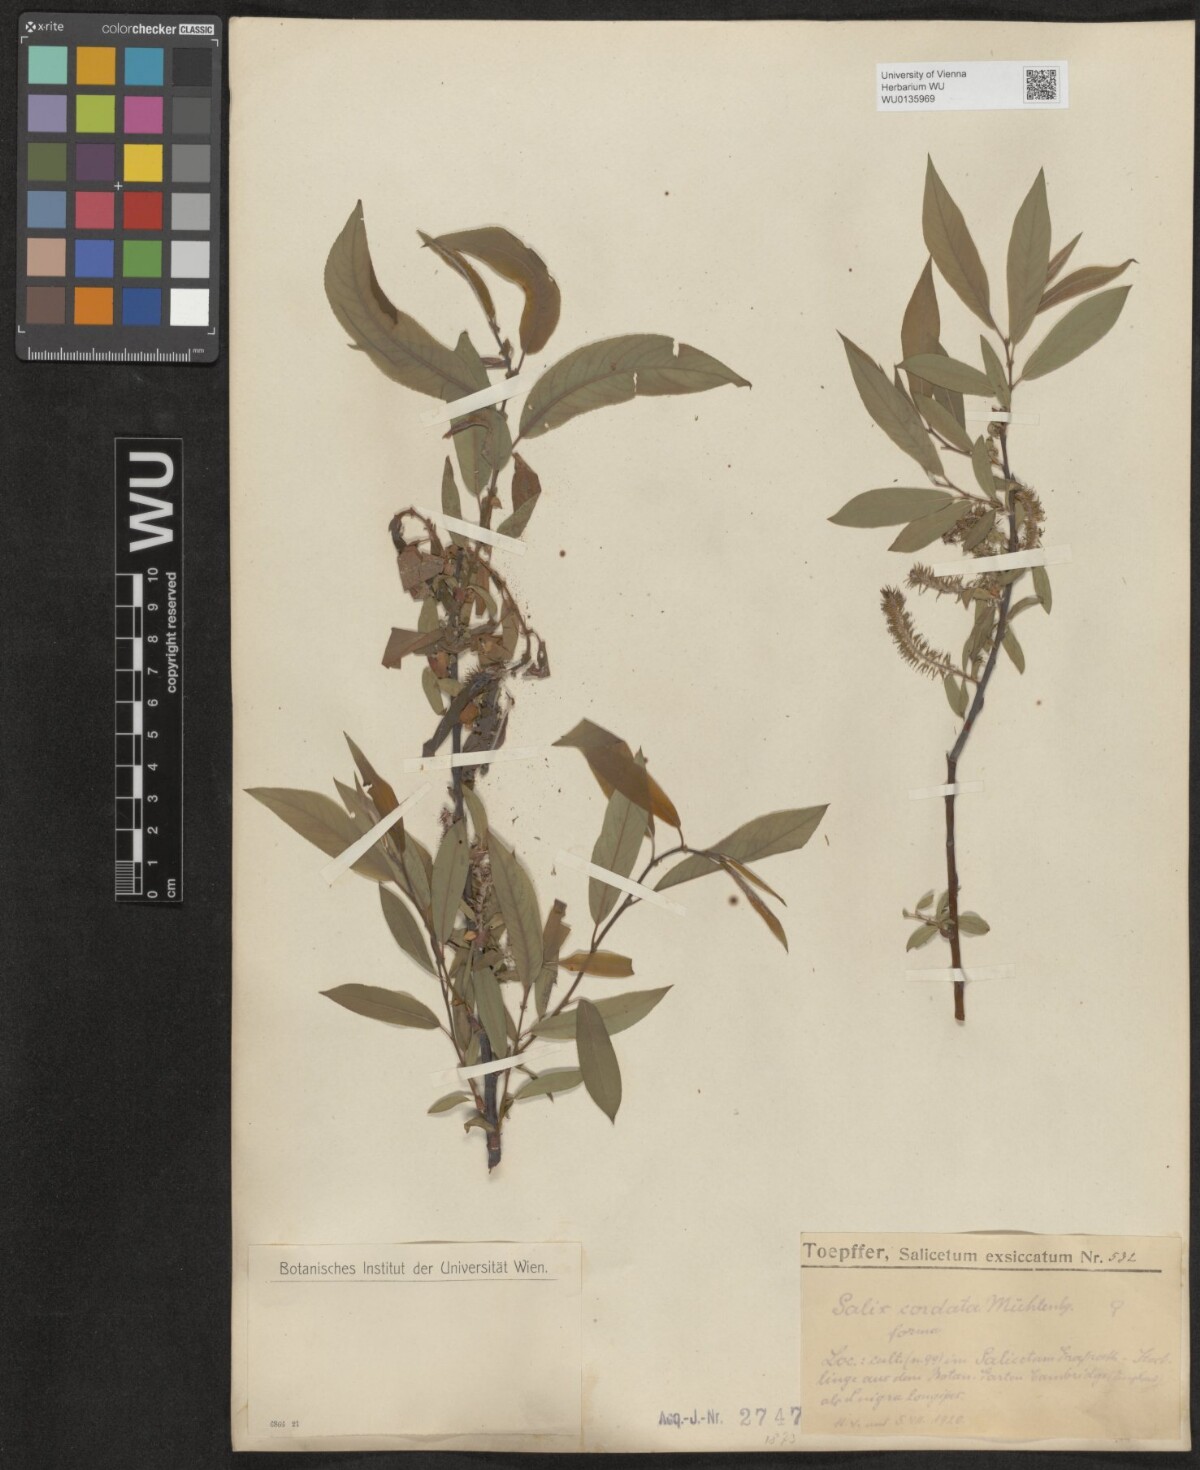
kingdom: Plantae
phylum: Tracheophyta
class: Magnoliopsida
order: Malpighiales
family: Salicaceae
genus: Salix
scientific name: Salix cordata
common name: Heart-leaf willow
